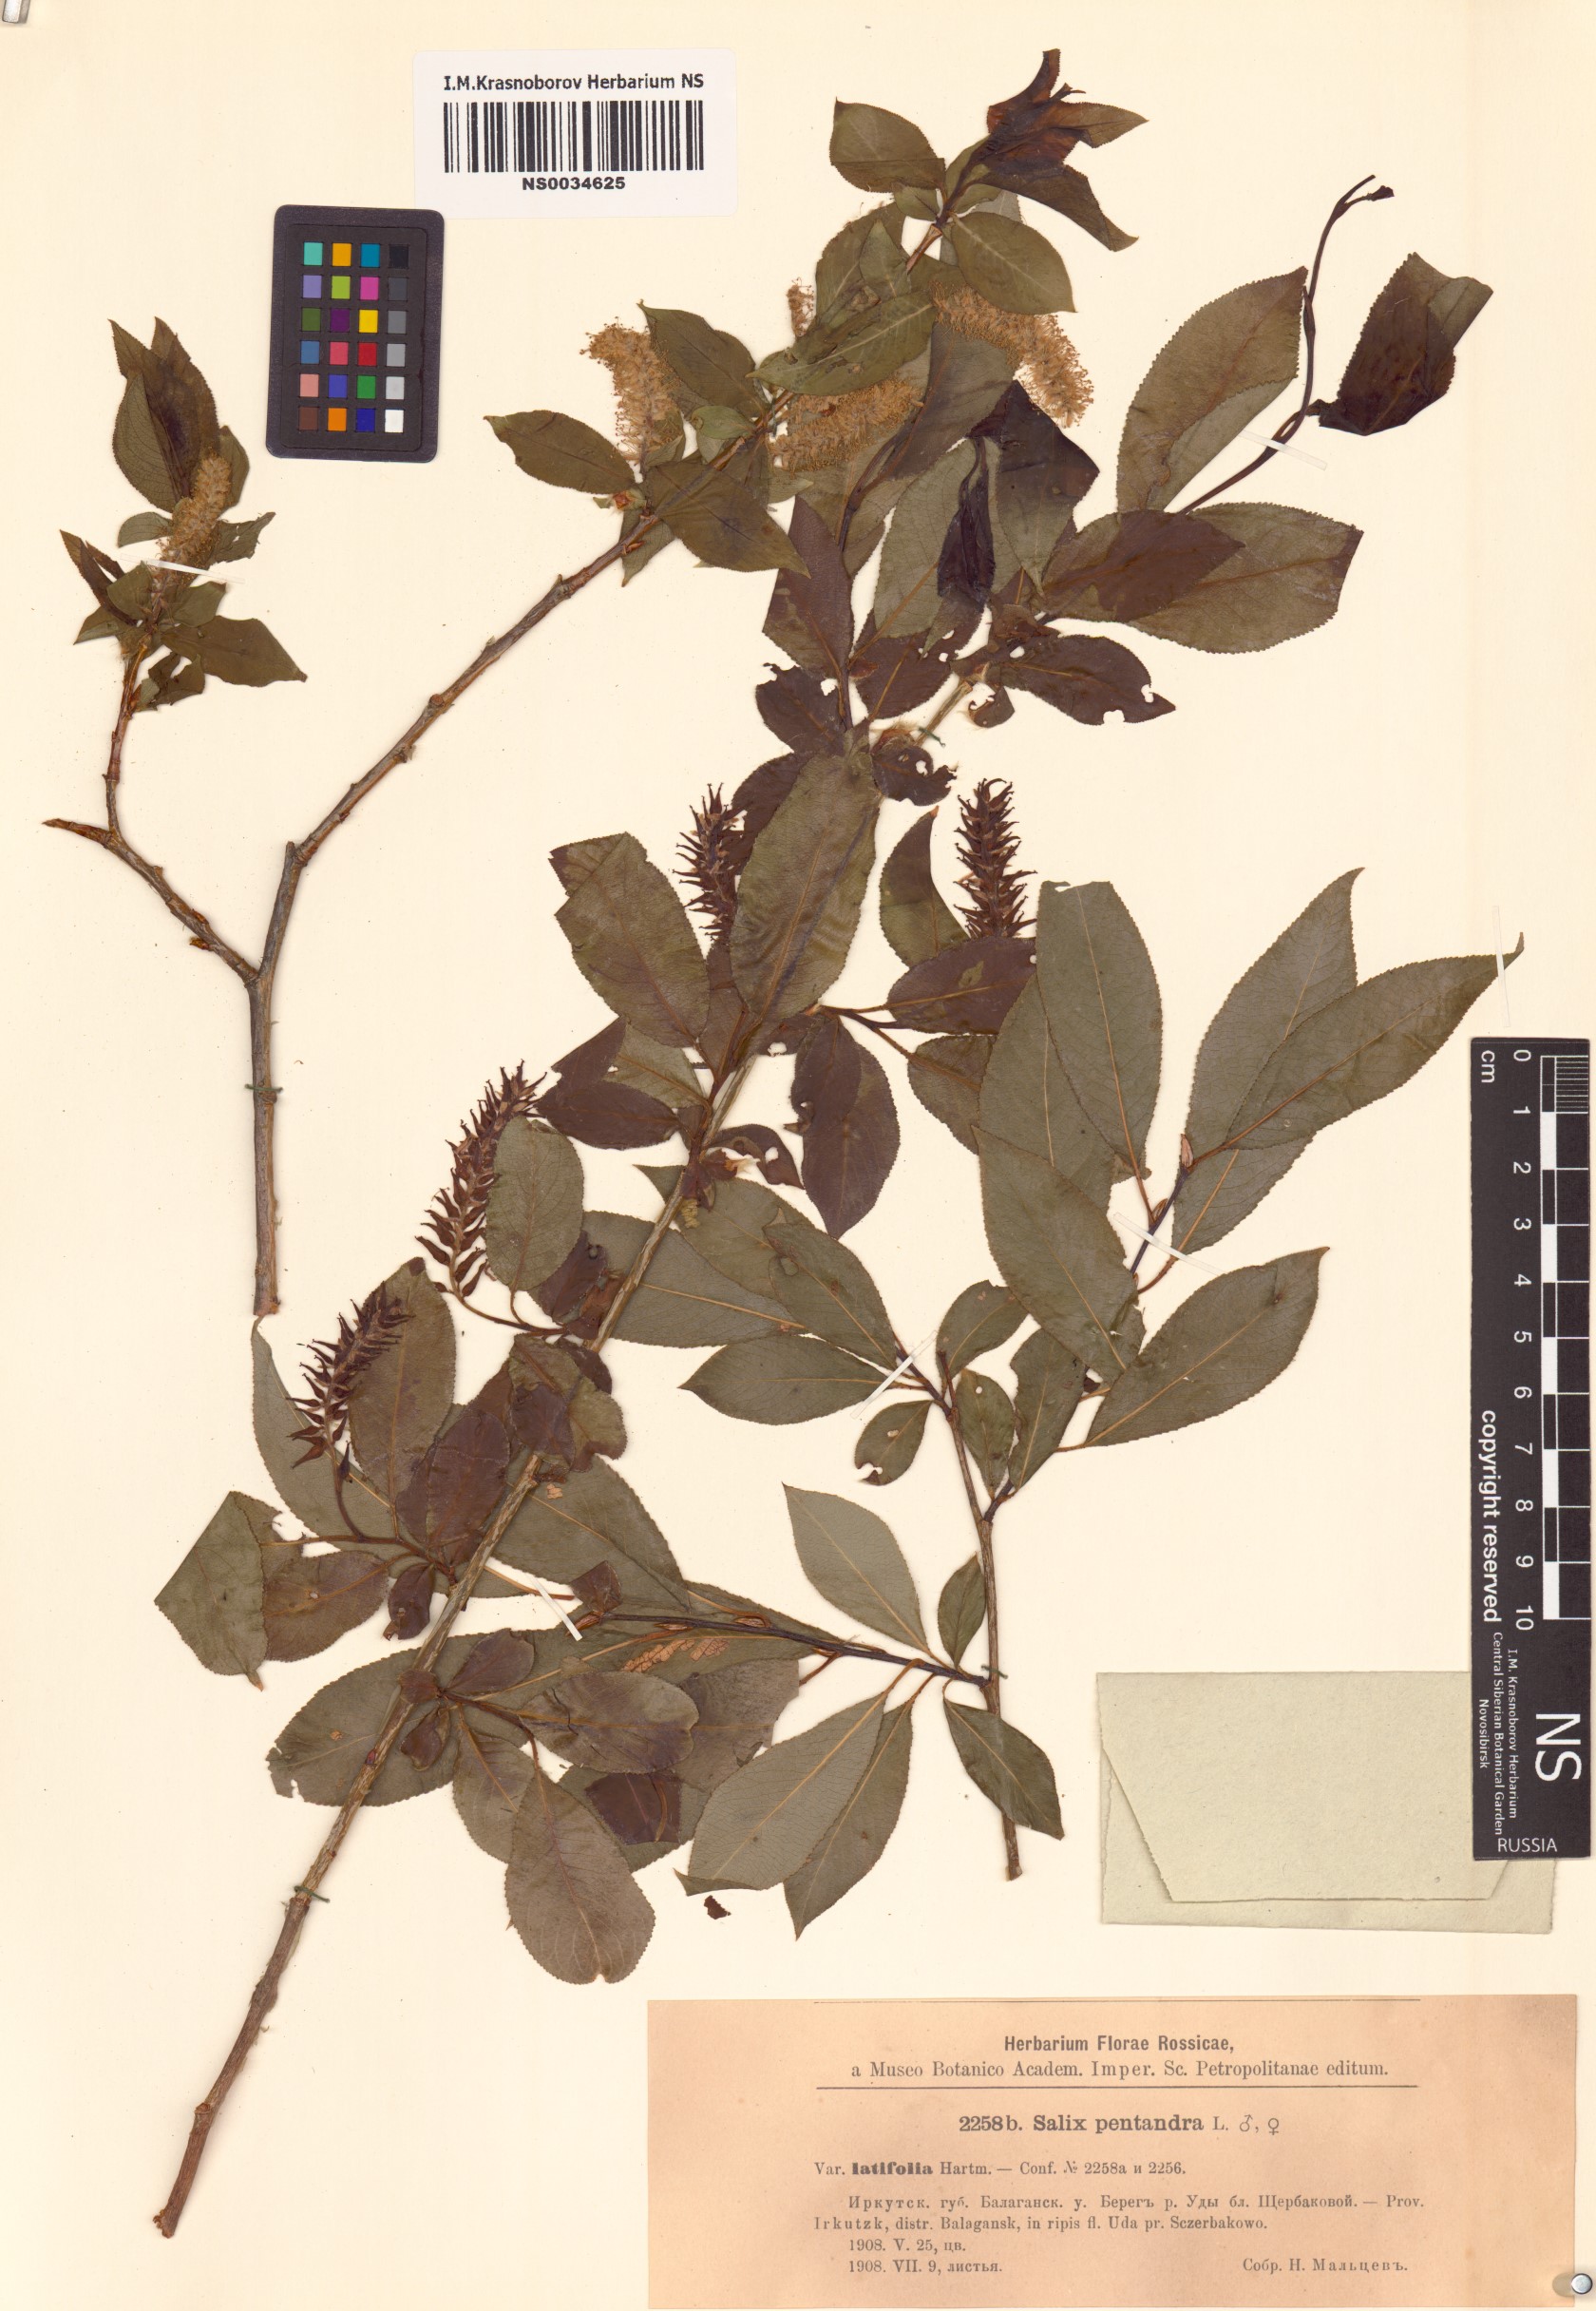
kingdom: Plantae
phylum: Tracheophyta
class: Magnoliopsida
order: Malpighiales
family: Salicaceae
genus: Salix
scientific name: Salix pseudopentandra
